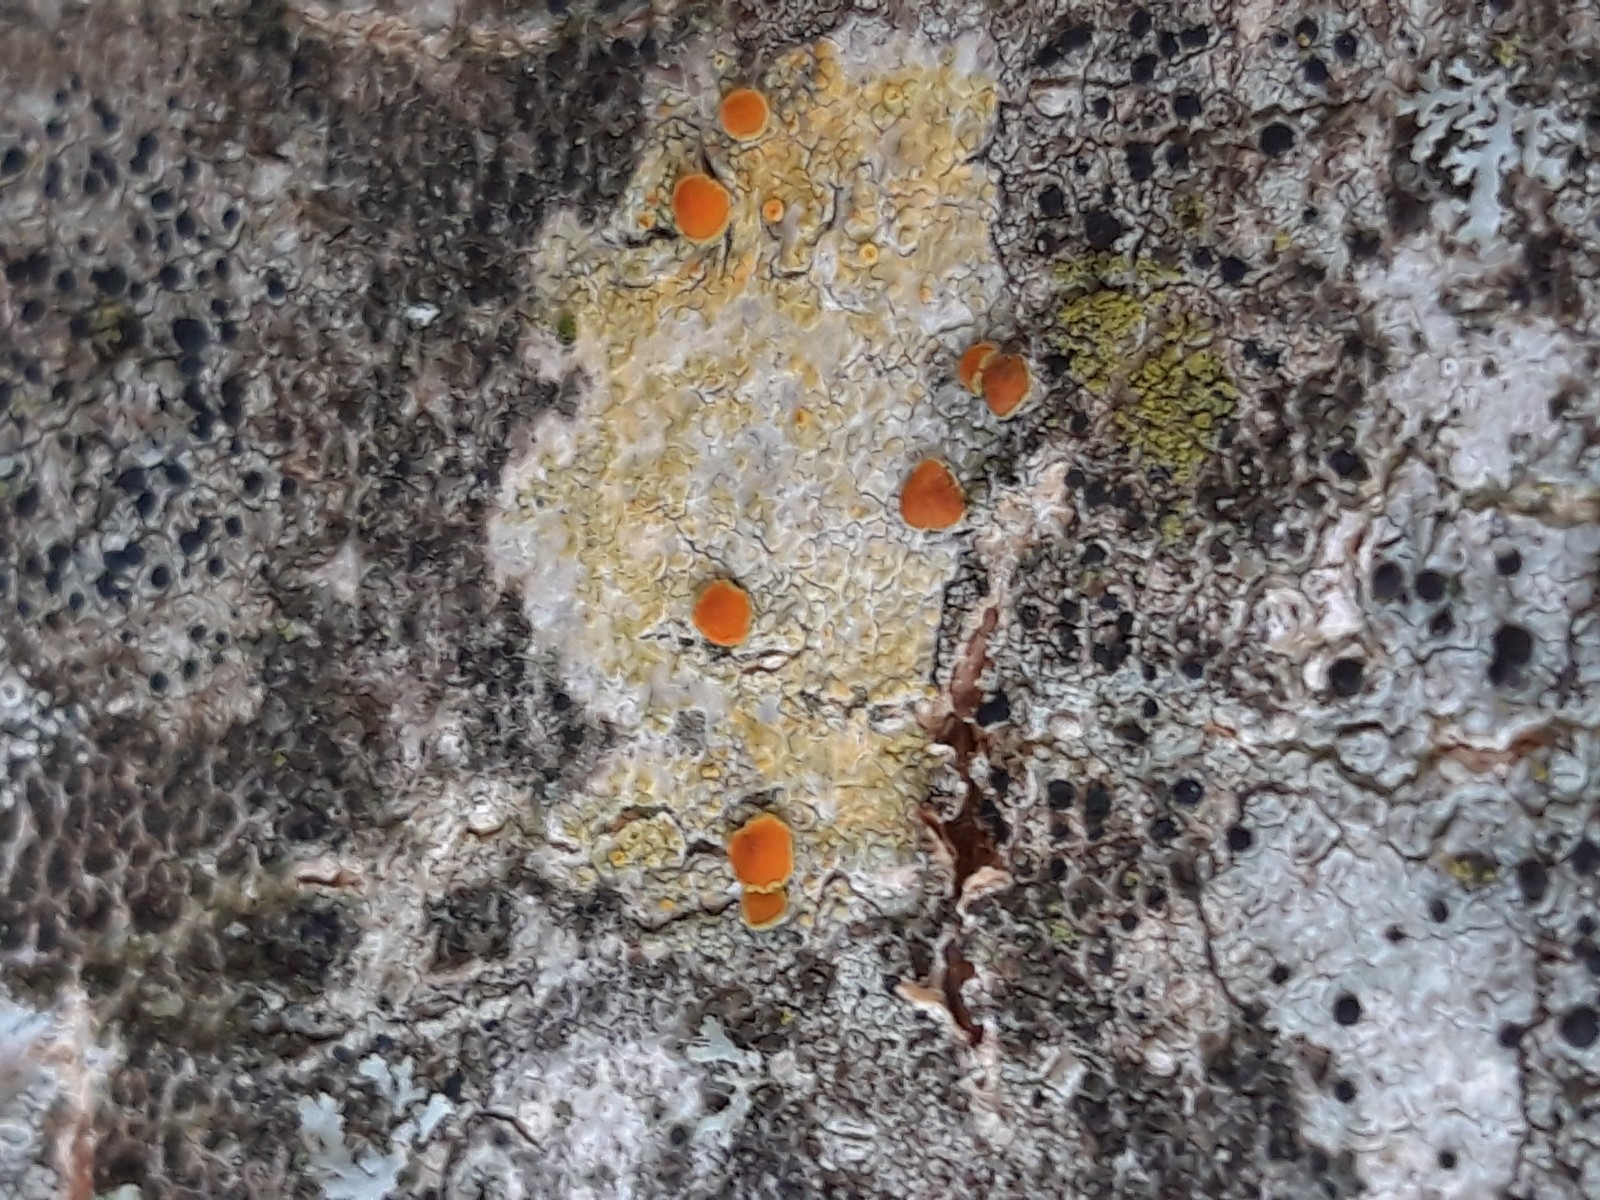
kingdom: Fungi
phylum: Ascomycota
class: Lecanoromycetes
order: Teloschistales
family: Teloschistaceae
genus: Opeltia
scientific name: Opeltia flavorubescens
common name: aspe-orangelav
